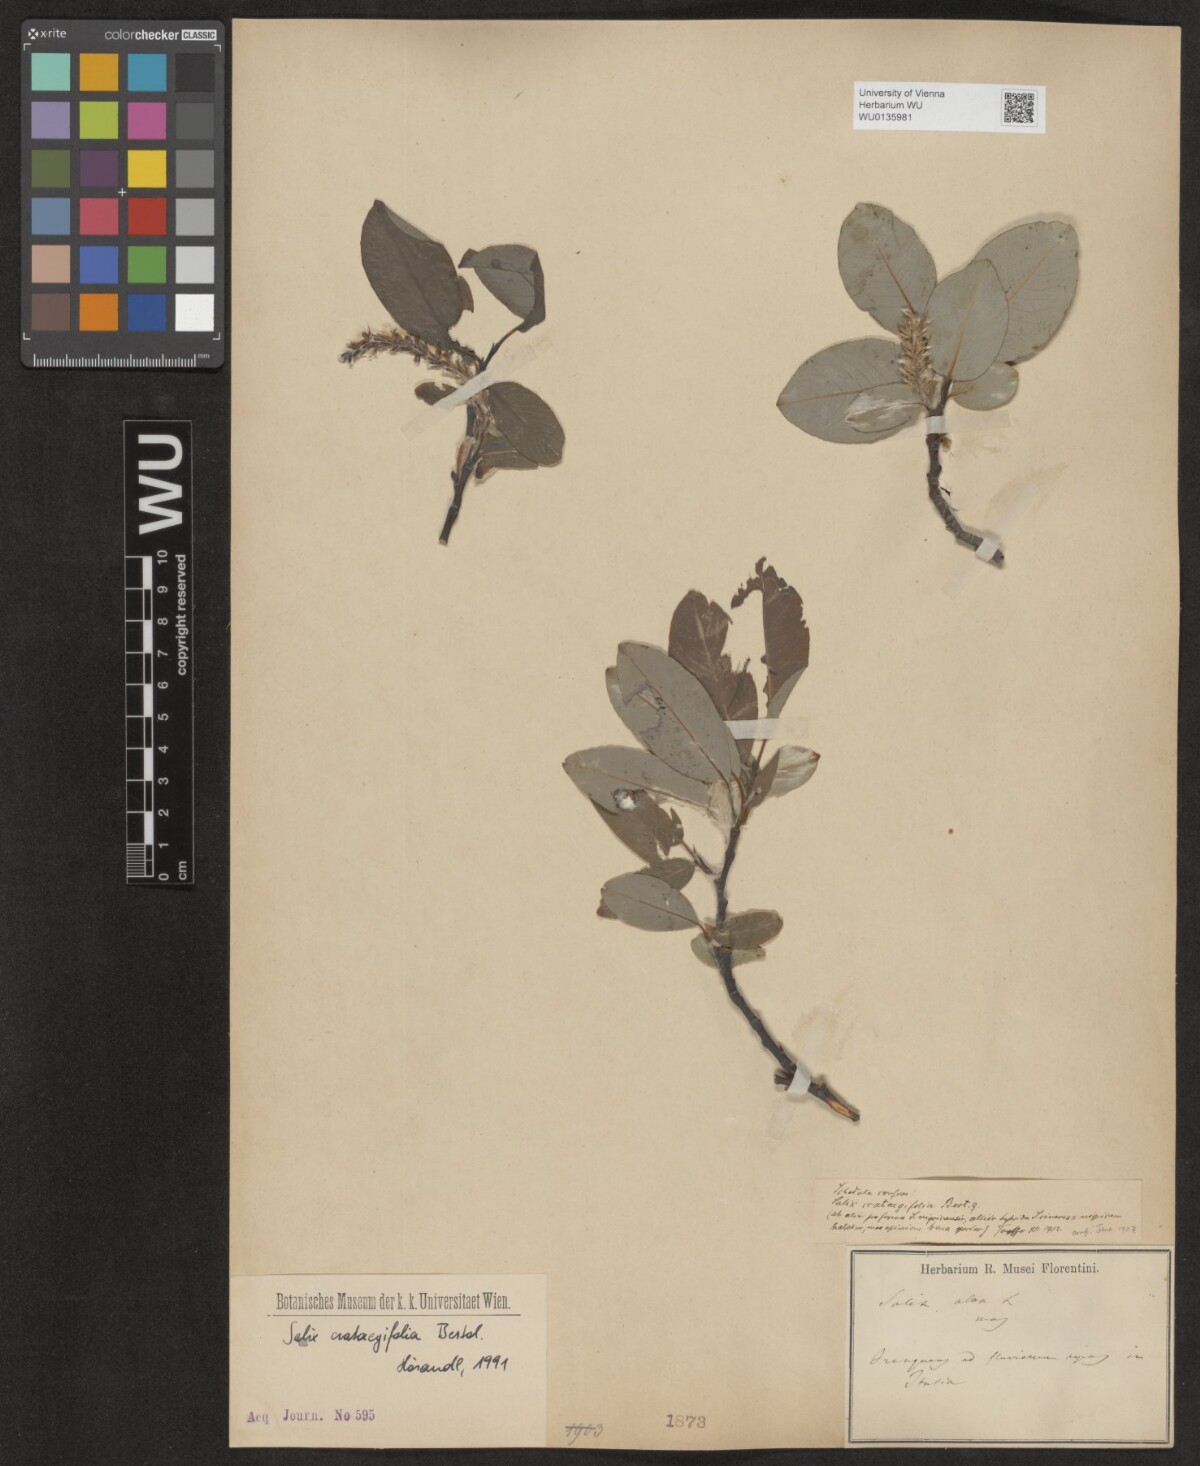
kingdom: Plantae
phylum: Tracheophyta
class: Magnoliopsida
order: Malpighiales
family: Salicaceae
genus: Salix
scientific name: Salix crataegifolia
